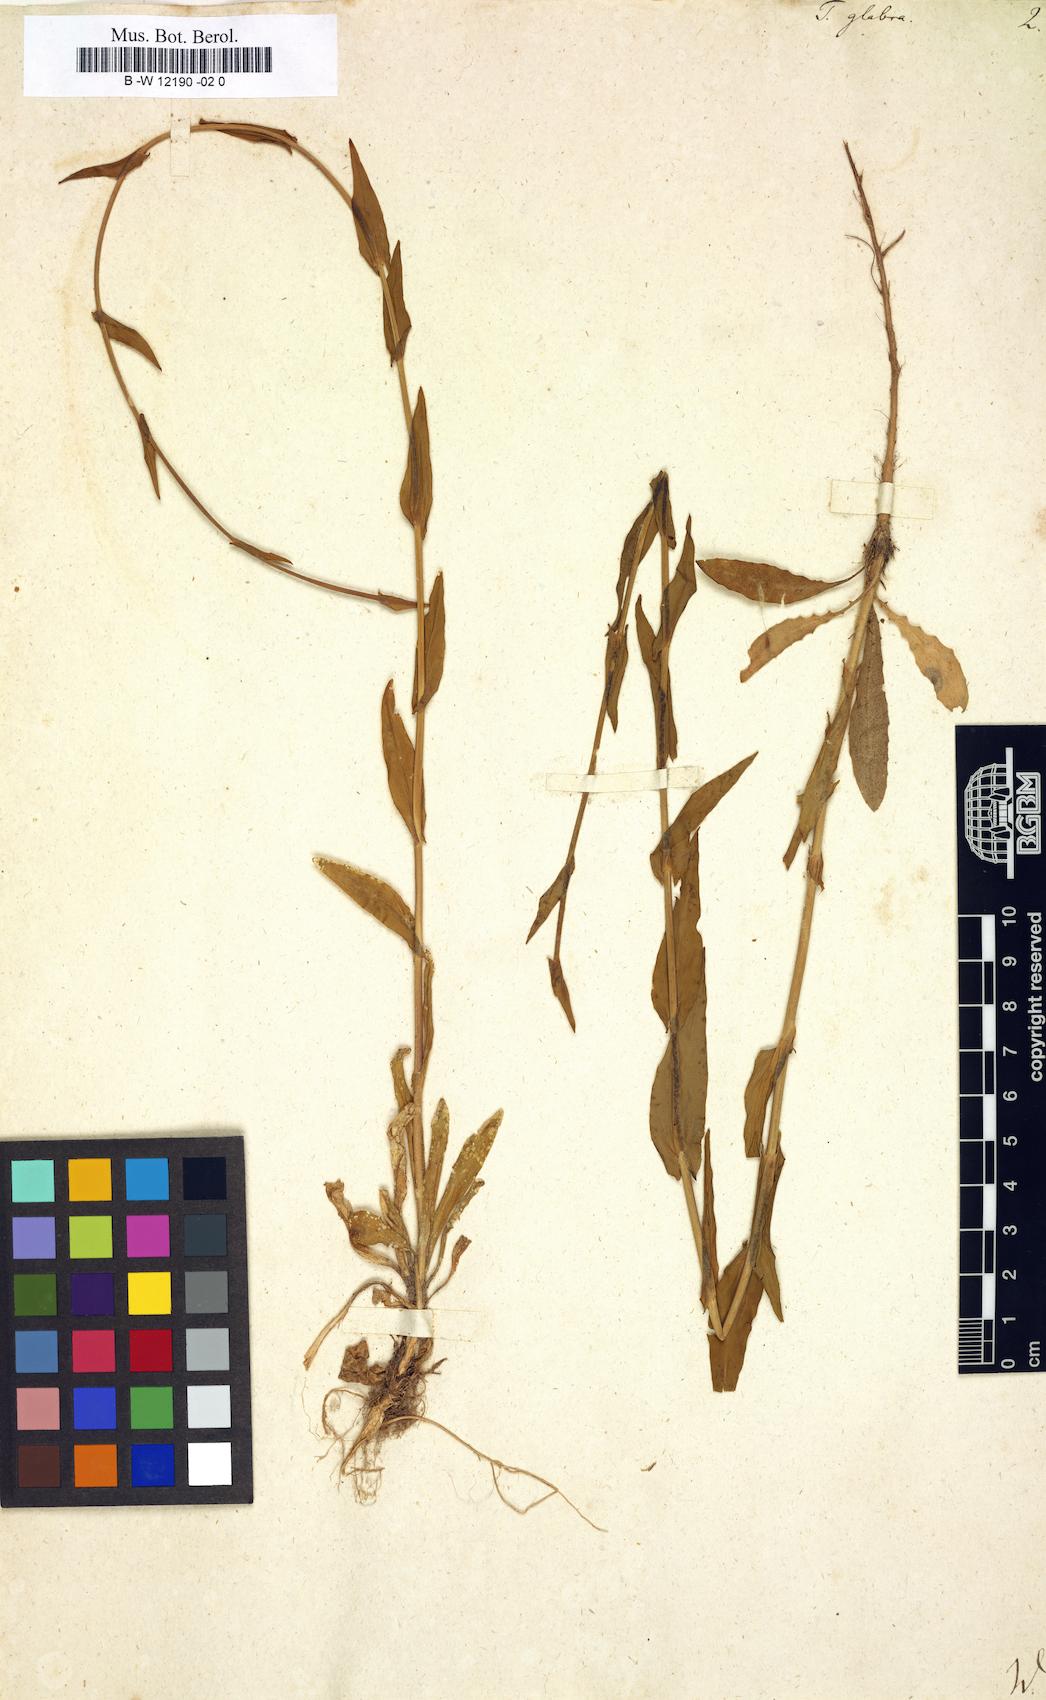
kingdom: Plantae
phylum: Tracheophyta
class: Magnoliopsida
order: Brassicales
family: Brassicaceae
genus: Turritis
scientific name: Turritis glabra
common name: Tower rockcress
